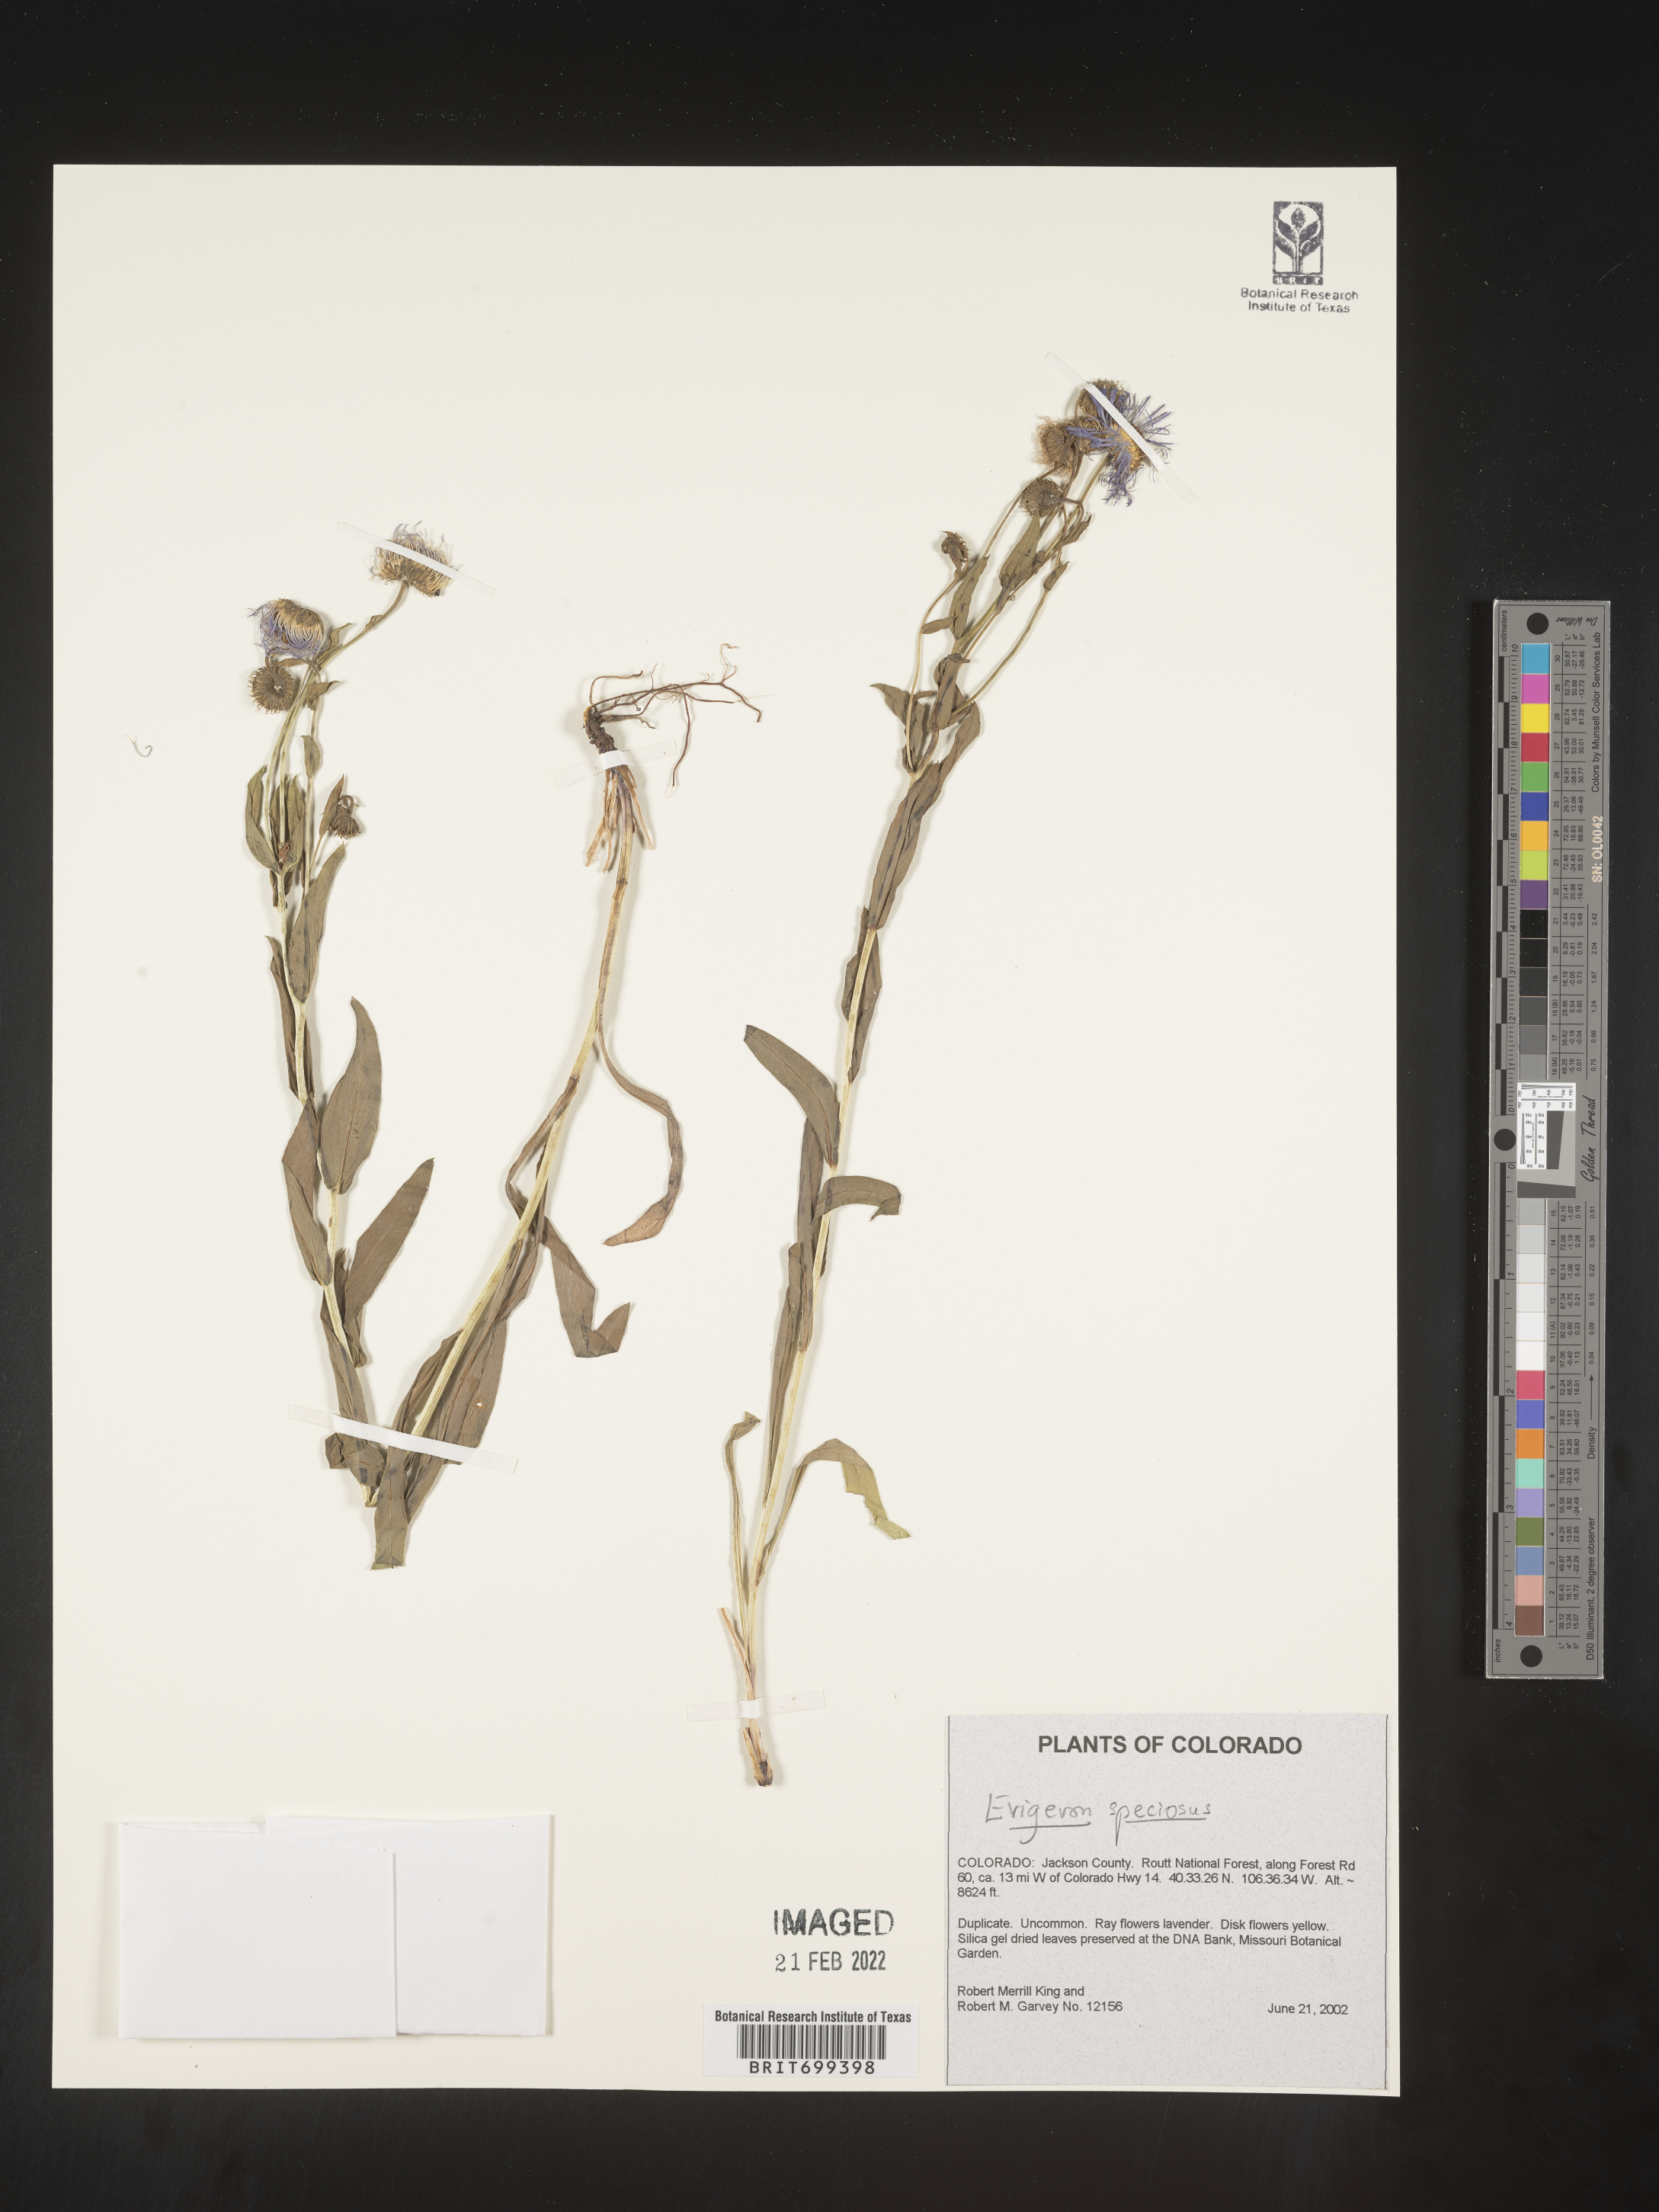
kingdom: Plantae
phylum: Tracheophyta
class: Magnoliopsida
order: Asterales
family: Asteraceae
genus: Erigeron
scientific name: Erigeron speciosus
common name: Aspen fleabane
